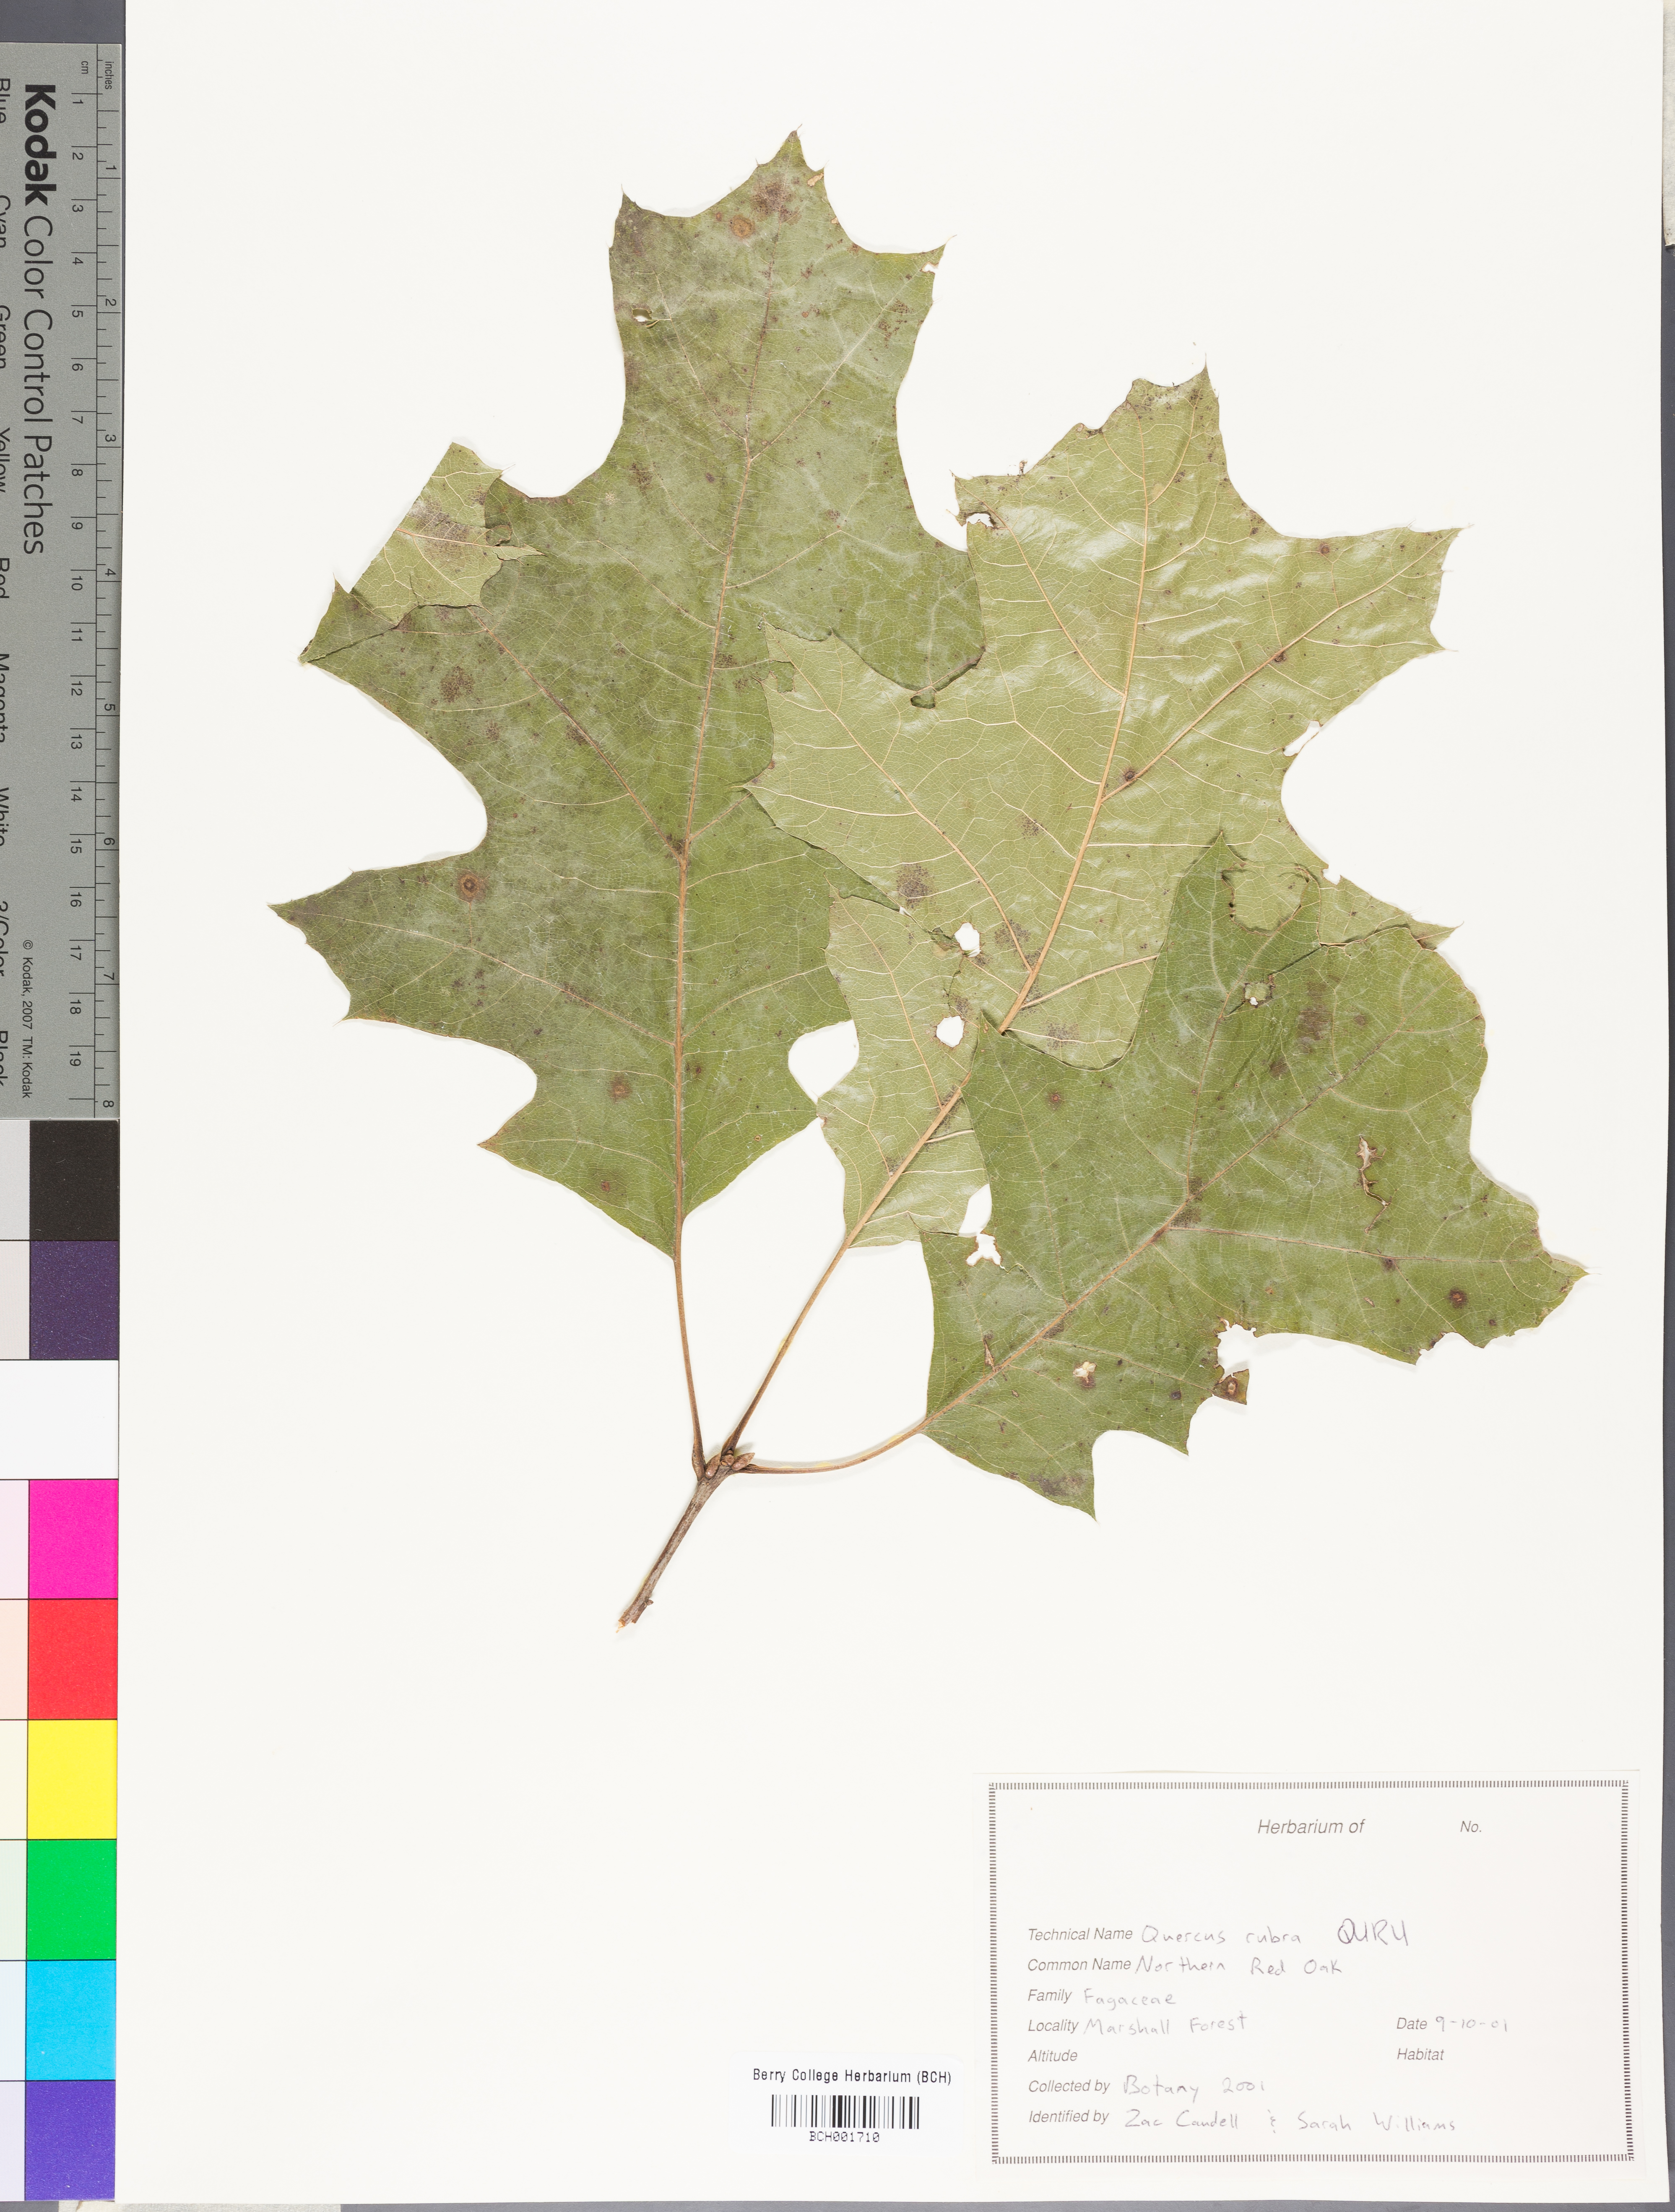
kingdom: Plantae
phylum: Tracheophyta
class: Magnoliopsida
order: Fagales
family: Fagaceae
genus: Quercus
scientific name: Quercus rubra
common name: Red oak
